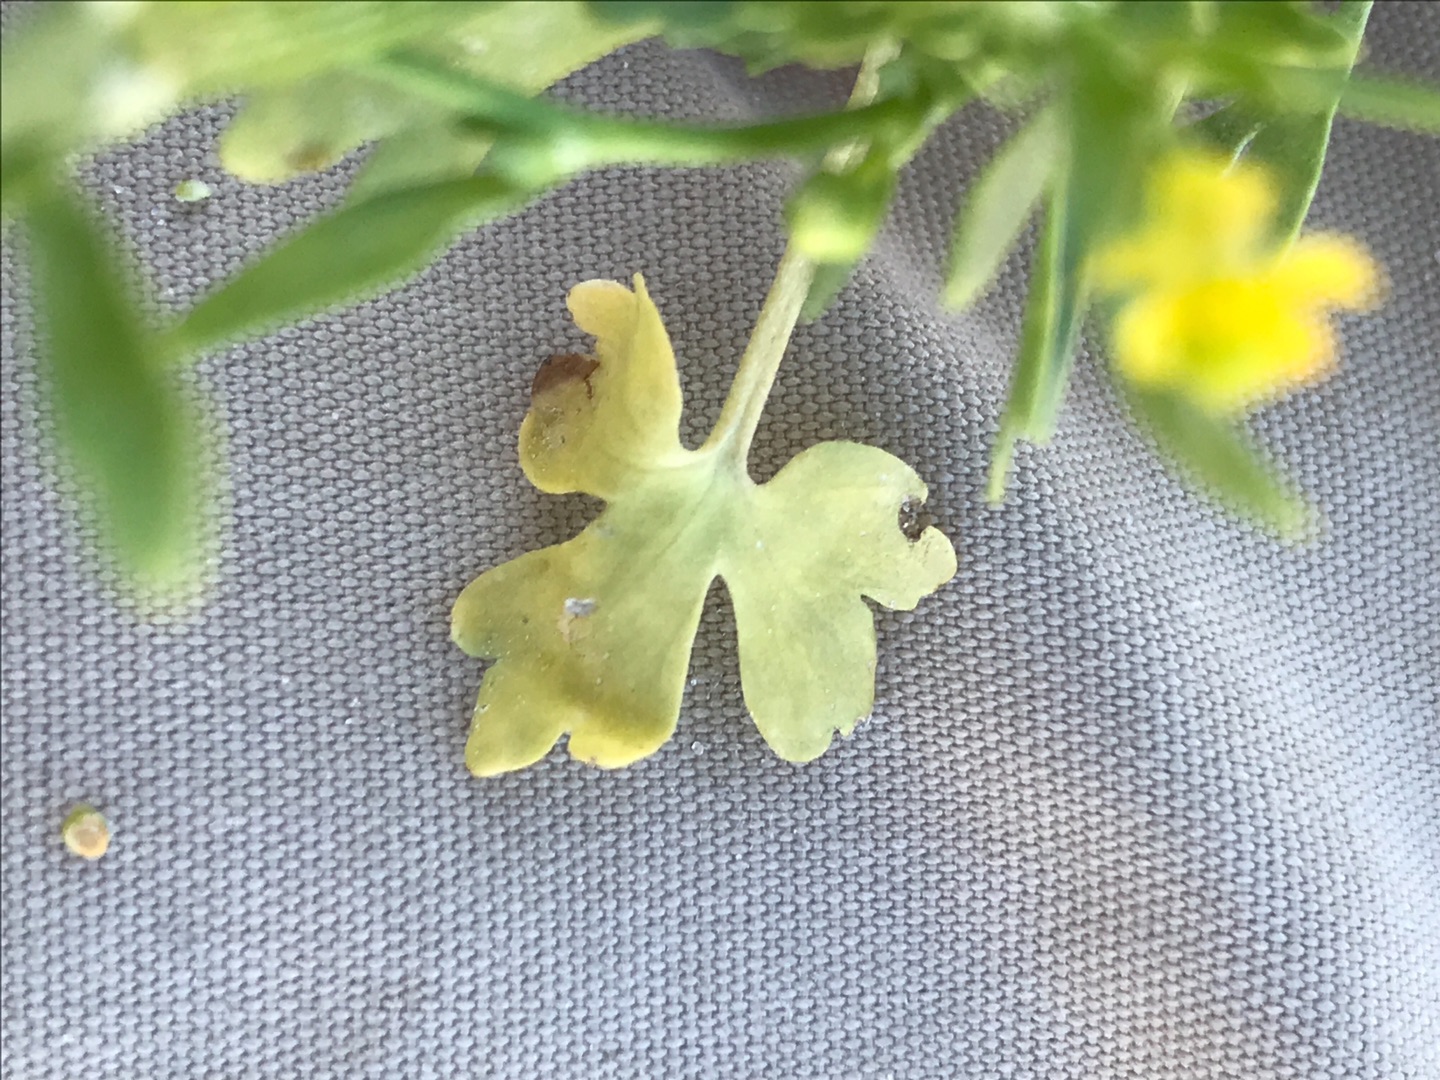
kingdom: Plantae
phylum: Tracheophyta
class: Magnoliopsida
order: Ranunculales
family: Ranunculaceae
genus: Ranunculus
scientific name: Ranunculus sceleratus
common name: Tigger-ranunkel
